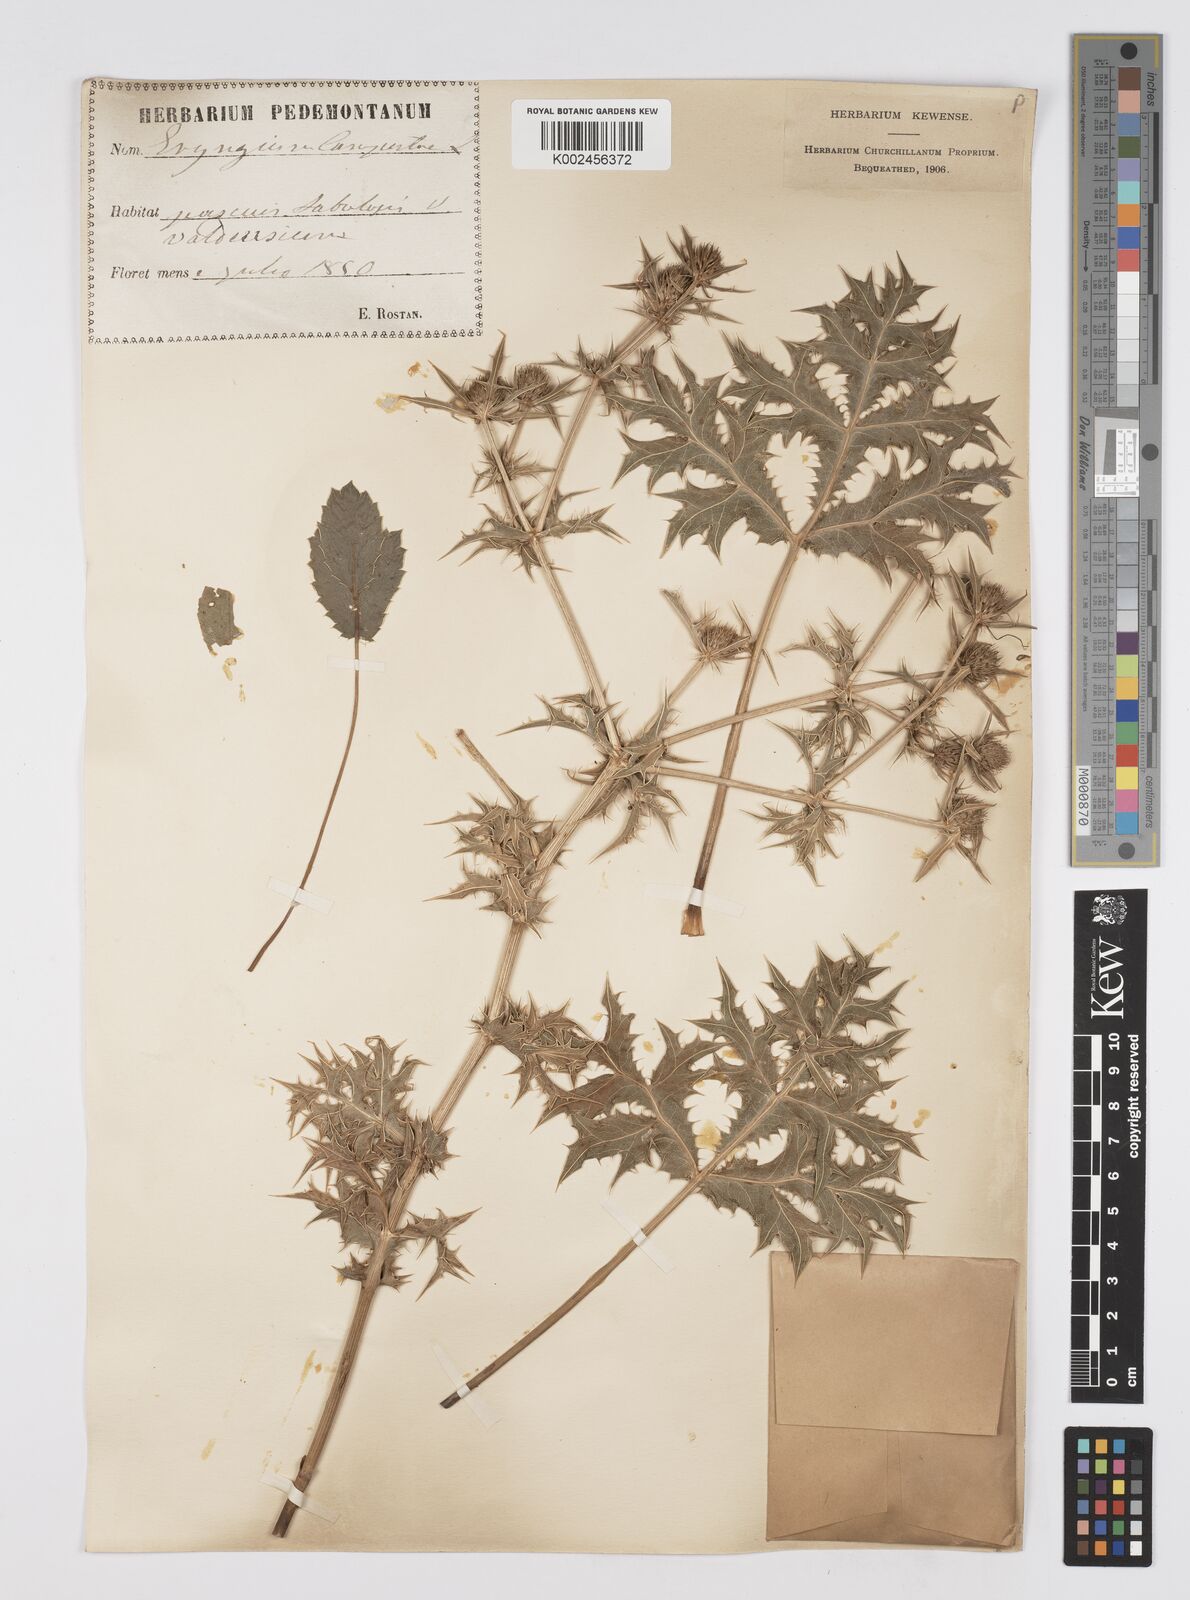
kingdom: Plantae
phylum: Tracheophyta
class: Magnoliopsida
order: Apiales
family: Apiaceae
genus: Eryngium
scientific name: Eryngium campestre
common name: Field eryngo
